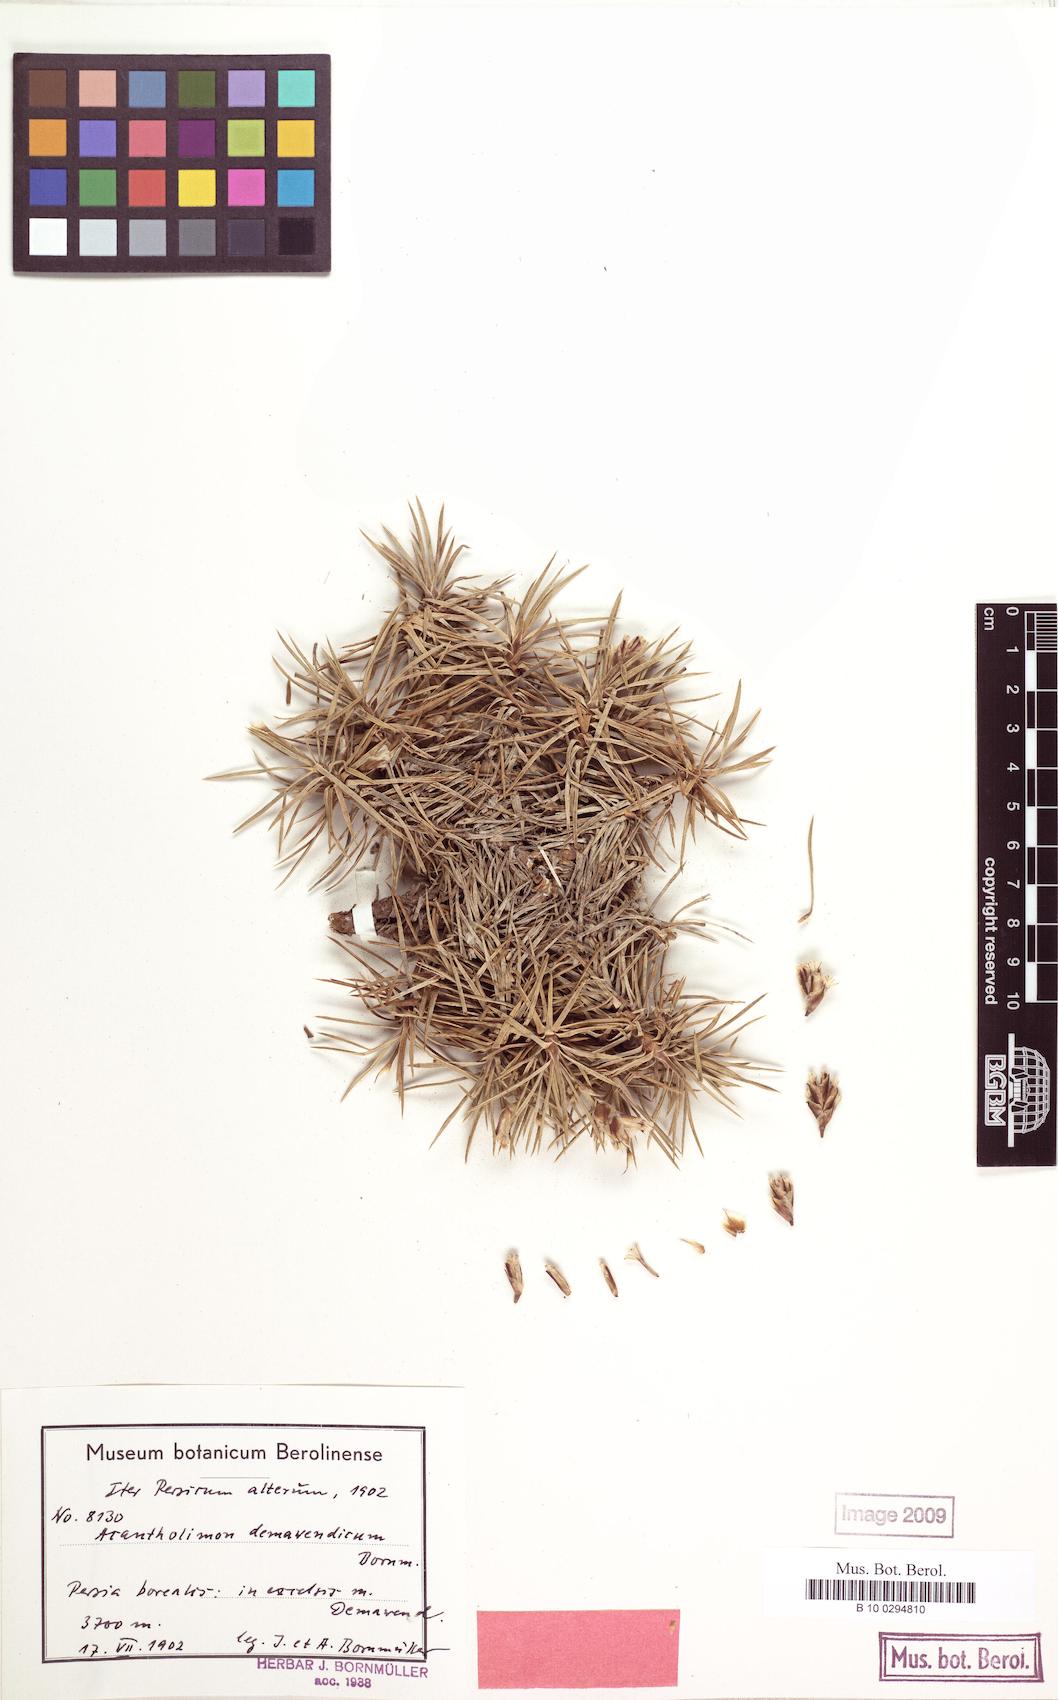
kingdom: Plantae
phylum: Tracheophyta
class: Magnoliopsida
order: Caryophyllales
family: Plumbaginaceae
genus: Acantholimon
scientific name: Acantholimon demavendicum
